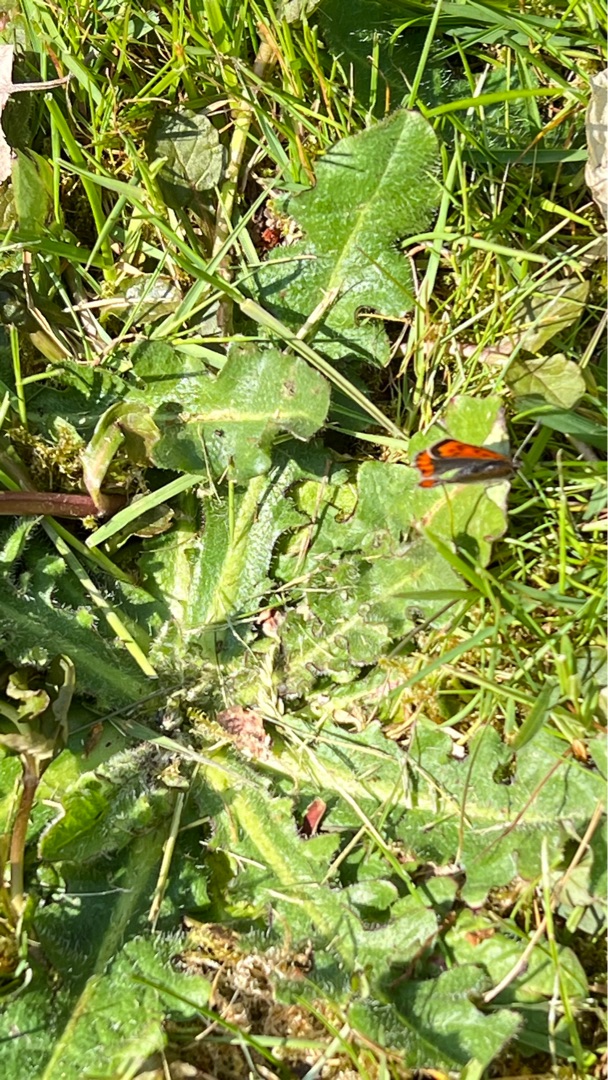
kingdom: Animalia
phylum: Arthropoda
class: Insecta
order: Lepidoptera
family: Lycaenidae
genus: Lycaena
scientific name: Lycaena phlaeas
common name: Lille ildfugl
